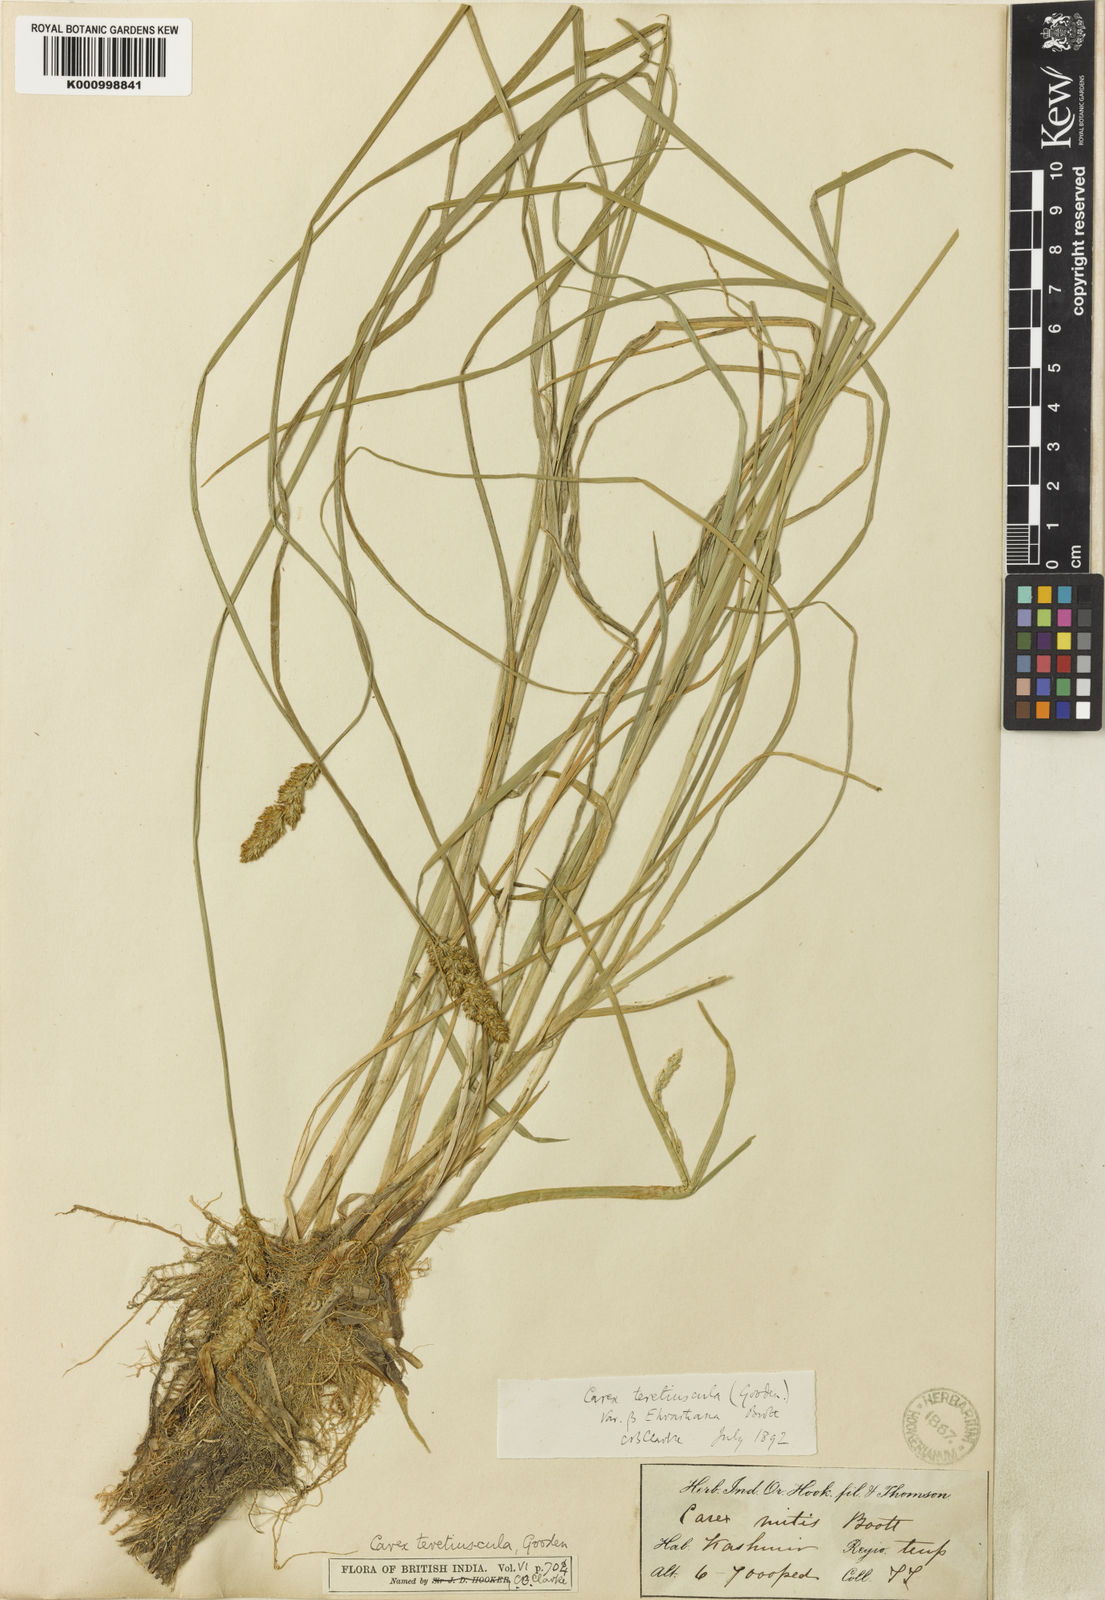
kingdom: Plantae
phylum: Tracheophyta
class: Liliopsida
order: Poales
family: Cyperaceae
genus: Carex
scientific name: Carex diandra
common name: Lesser tussock-sedge
